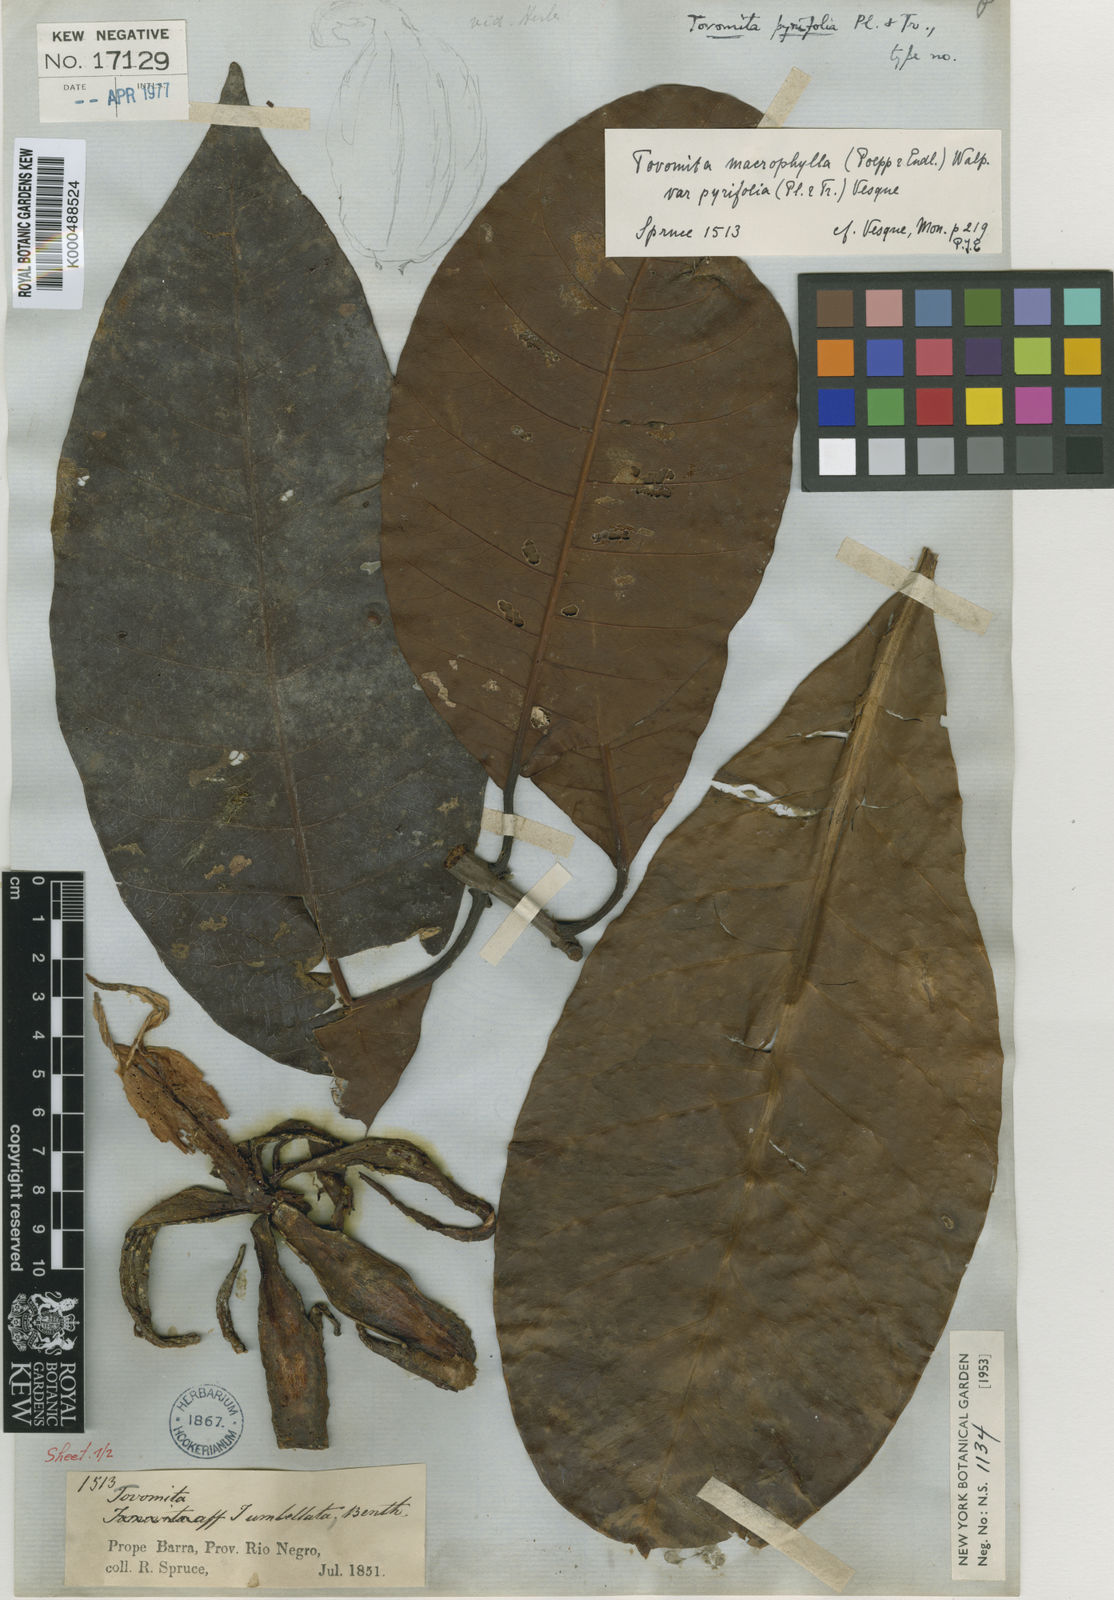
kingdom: Plantae
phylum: Tracheophyta
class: Magnoliopsida
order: Malpighiales
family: Clusiaceae
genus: Tovomita
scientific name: Tovomita macrophylla
